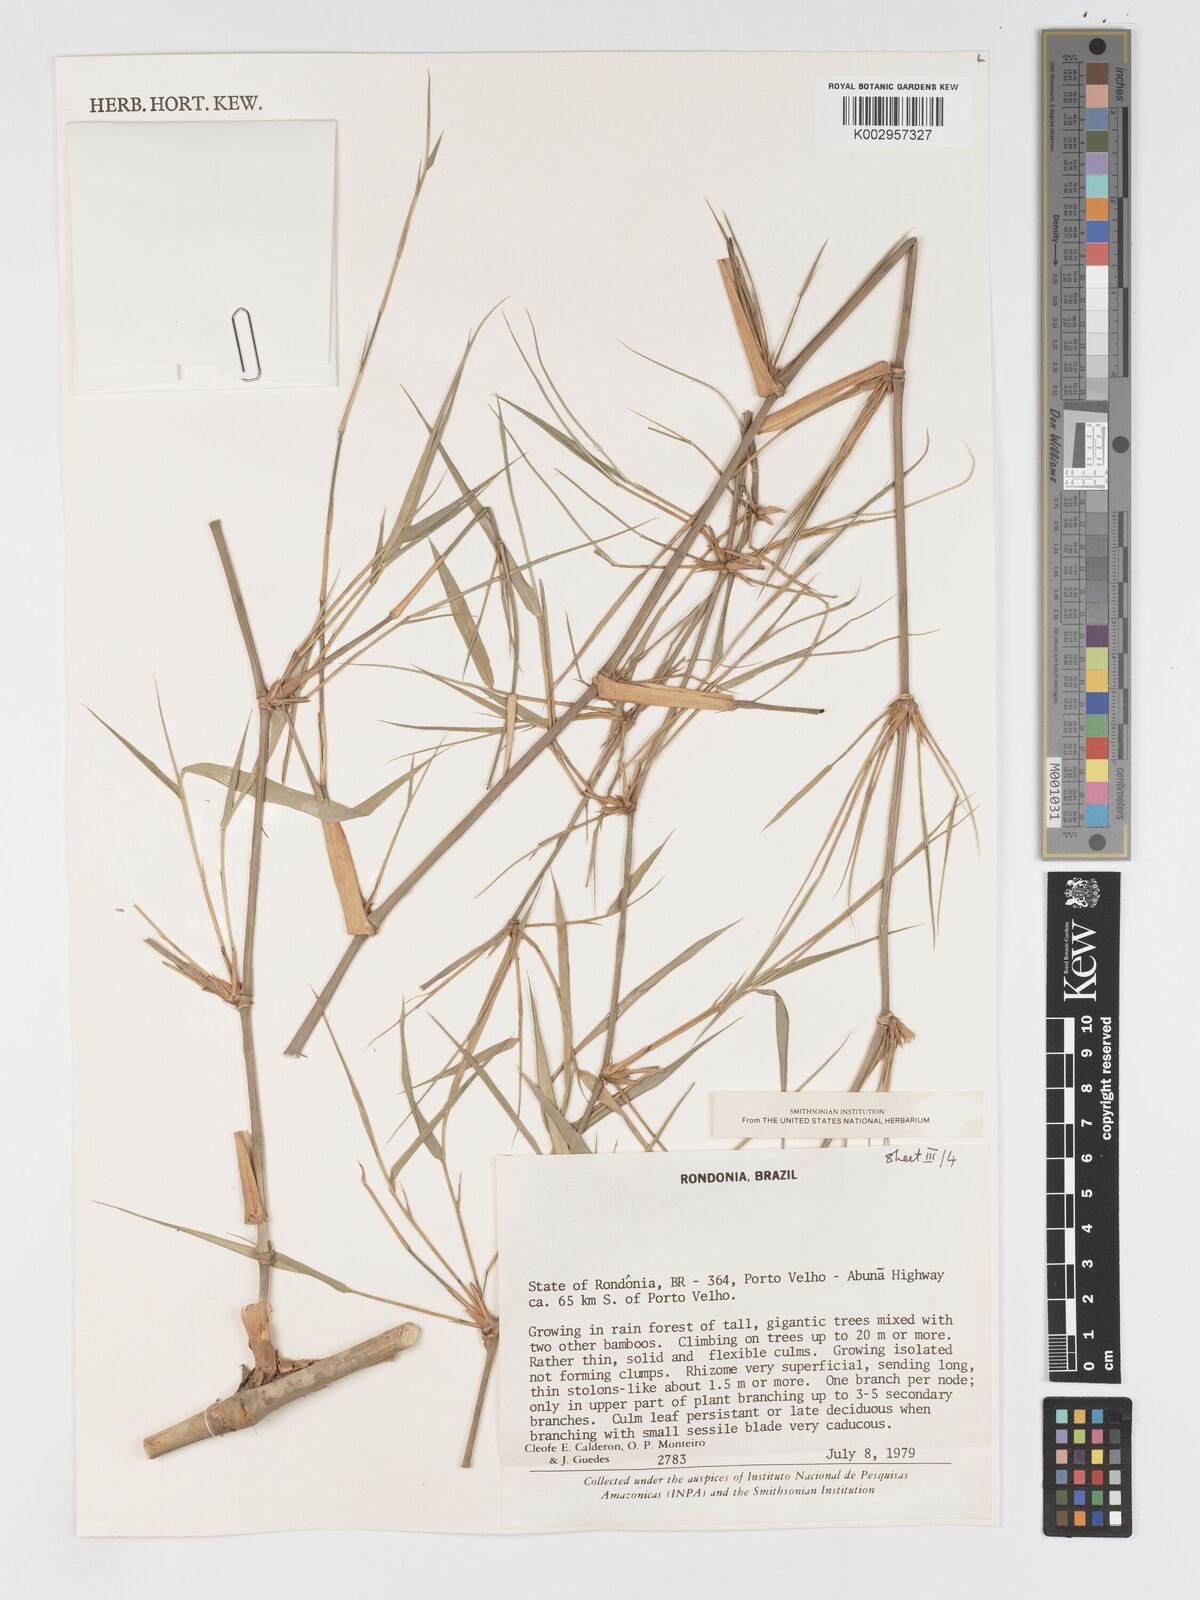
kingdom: Plantae
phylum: Tracheophyta
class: Liliopsida
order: Poales
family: Poaceae
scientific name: Poaceae
